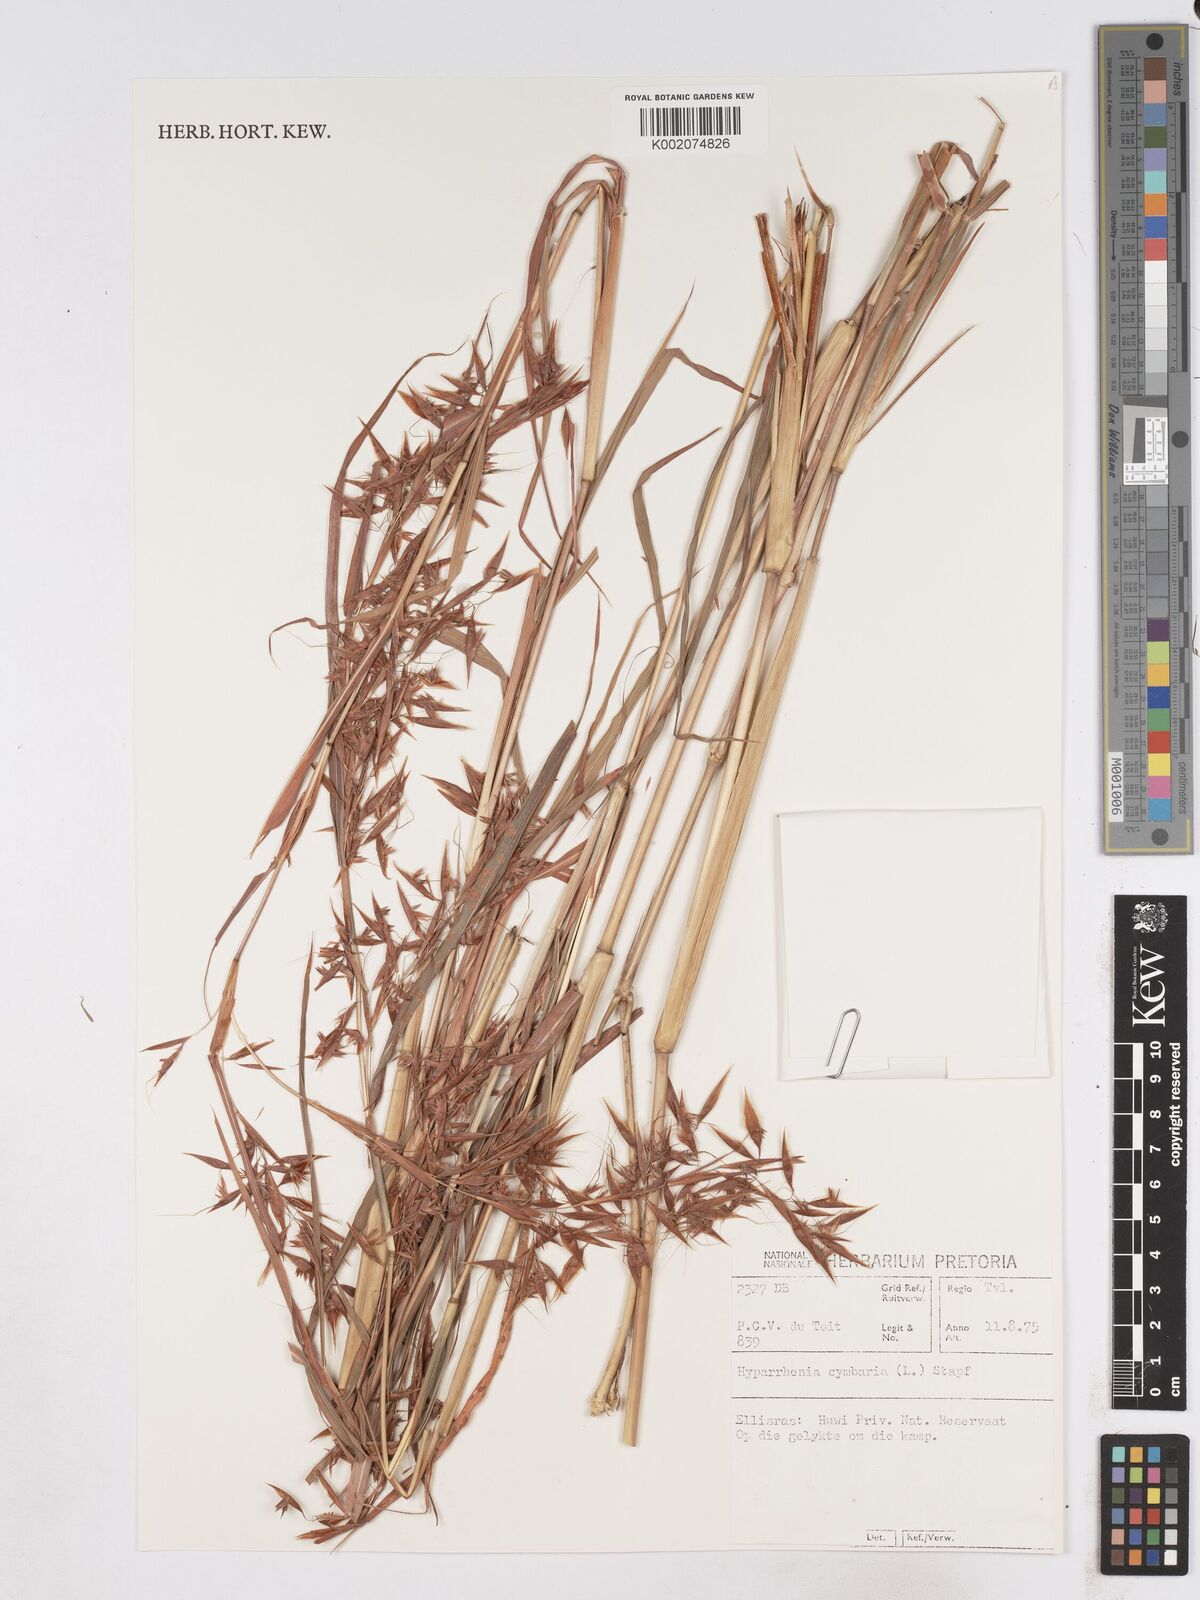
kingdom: Plantae
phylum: Tracheophyta
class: Liliopsida
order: Poales
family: Poaceae
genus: Hyparrhenia
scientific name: Hyparrhenia cymbaria
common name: Boat thatching grass
